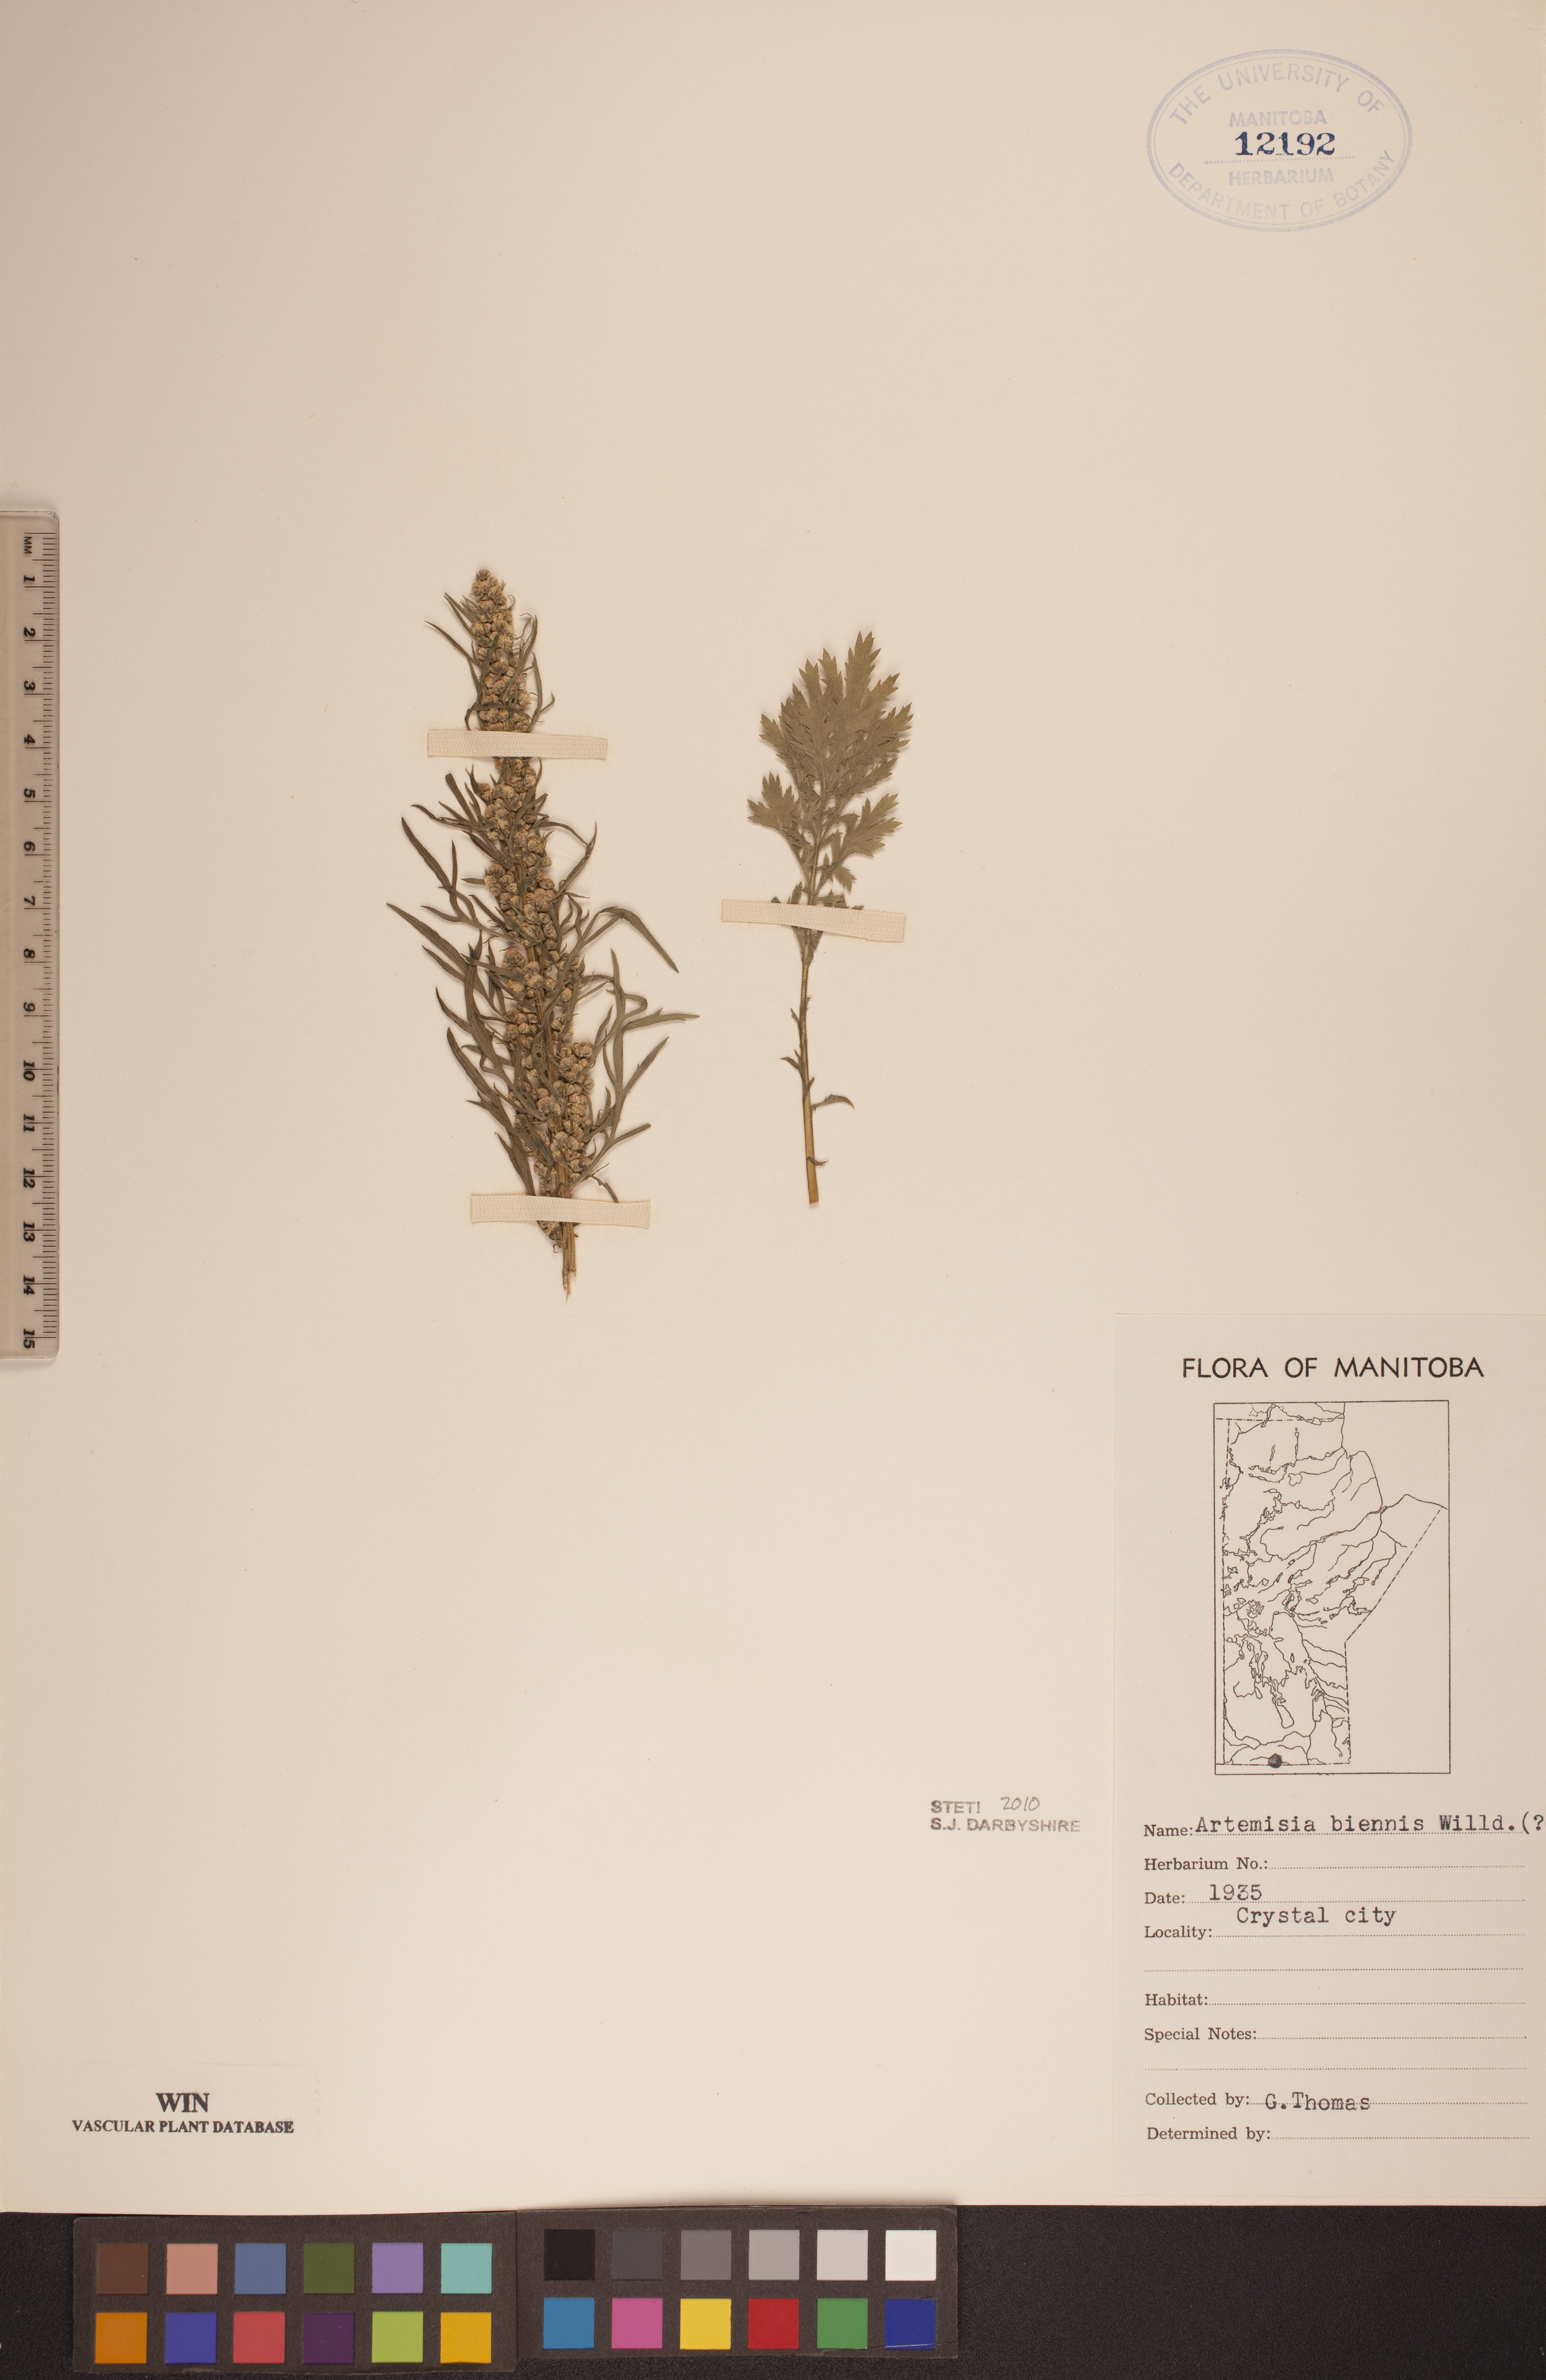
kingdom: Plantae
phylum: Tracheophyta
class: Magnoliopsida
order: Asterales
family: Asteraceae
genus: Artemisia
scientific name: Artemisia biennis
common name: Biennial wormwood
